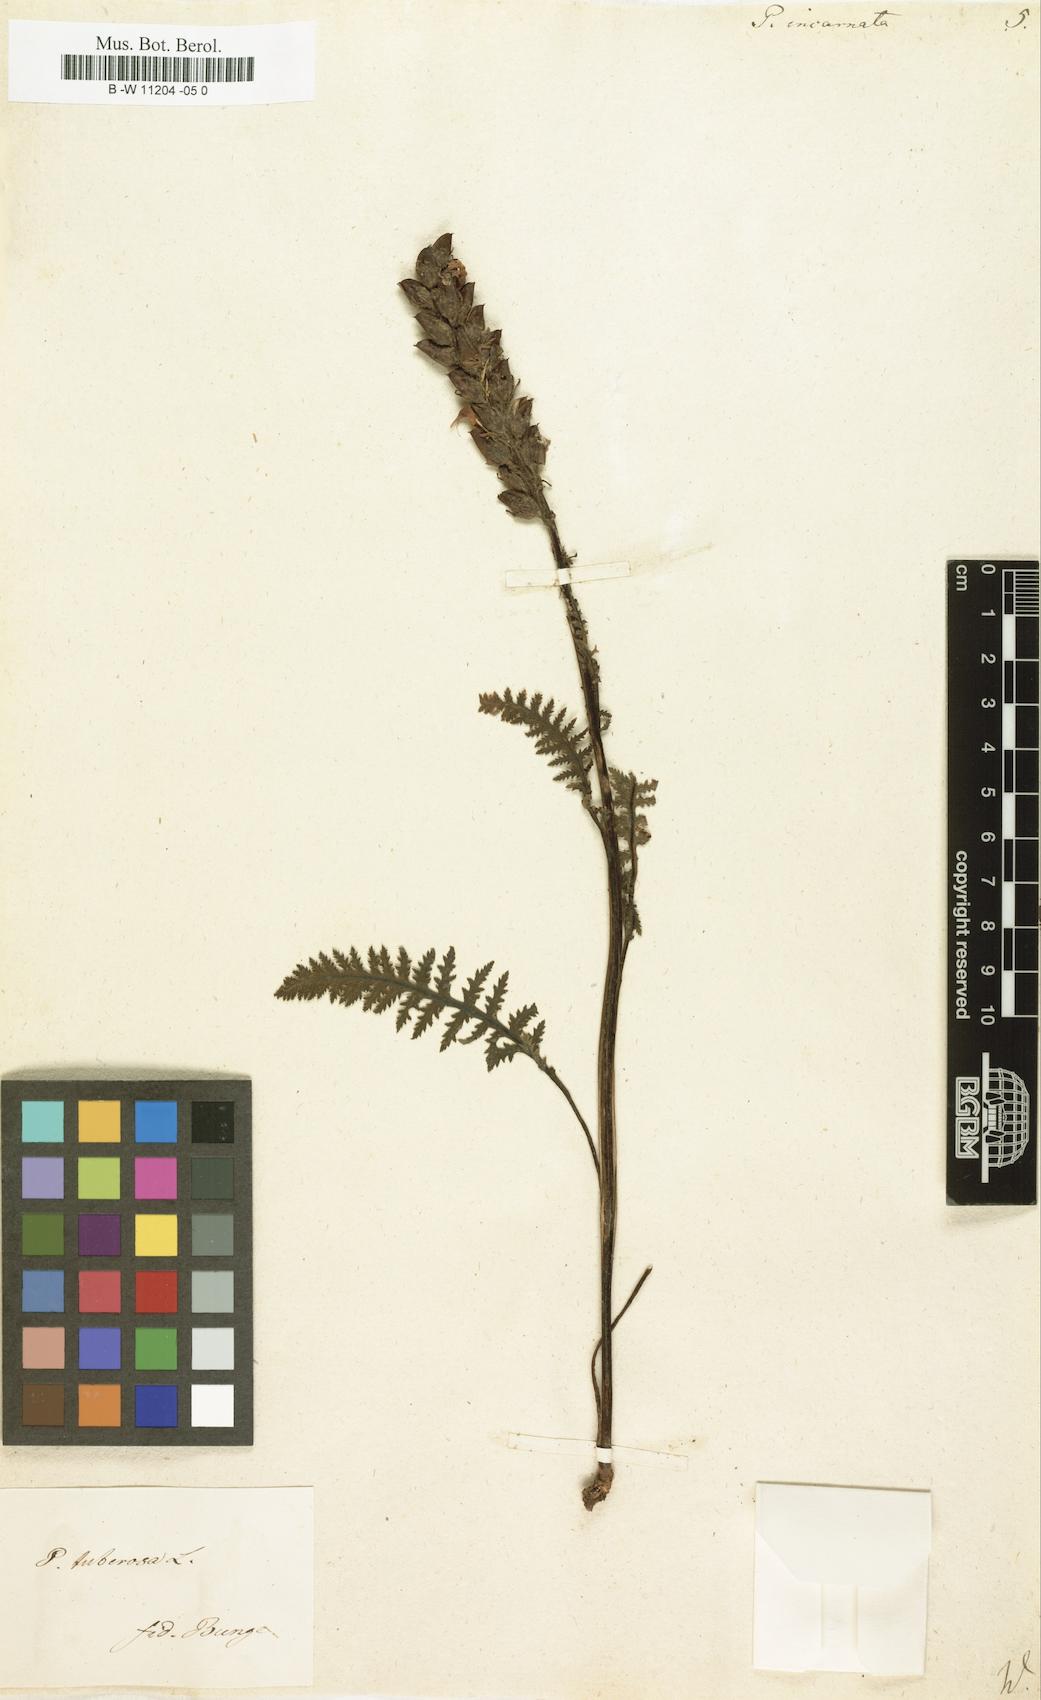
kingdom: Plantae
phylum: Tracheophyta
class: Magnoliopsida
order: Lamiales
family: Orobanchaceae
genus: Pedicularis
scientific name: Pedicularis incarnata
